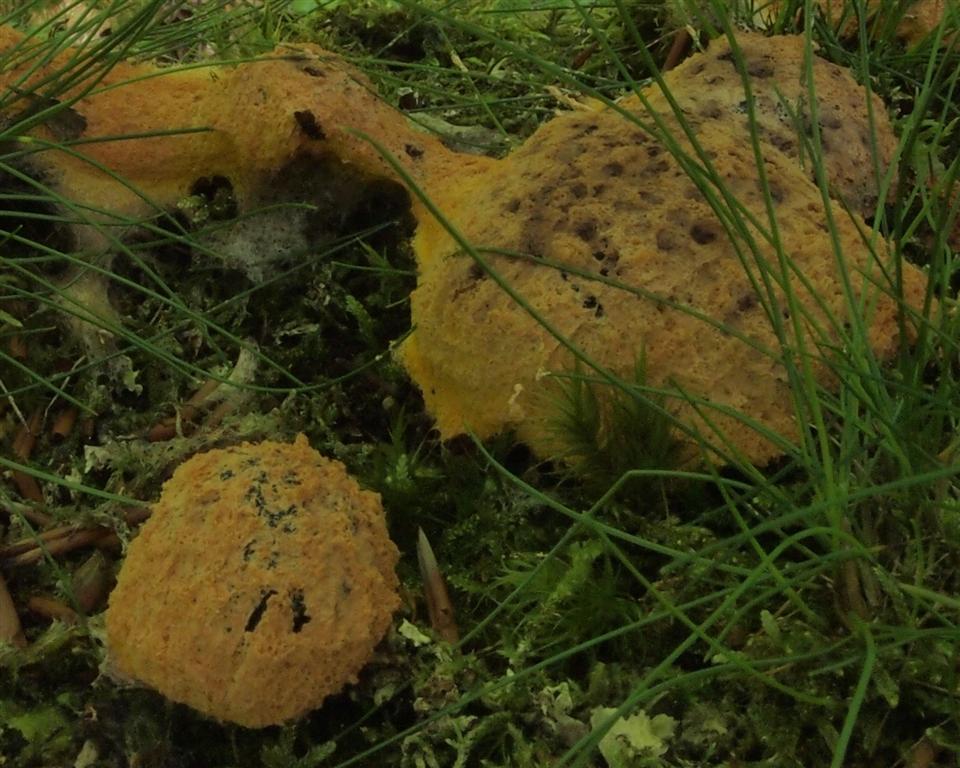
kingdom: Protozoa
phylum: Mycetozoa
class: Myxomycetes
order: Physarales
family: Physaraceae
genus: Fuligo
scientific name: Fuligo septica
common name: Dog vomit slime mold
